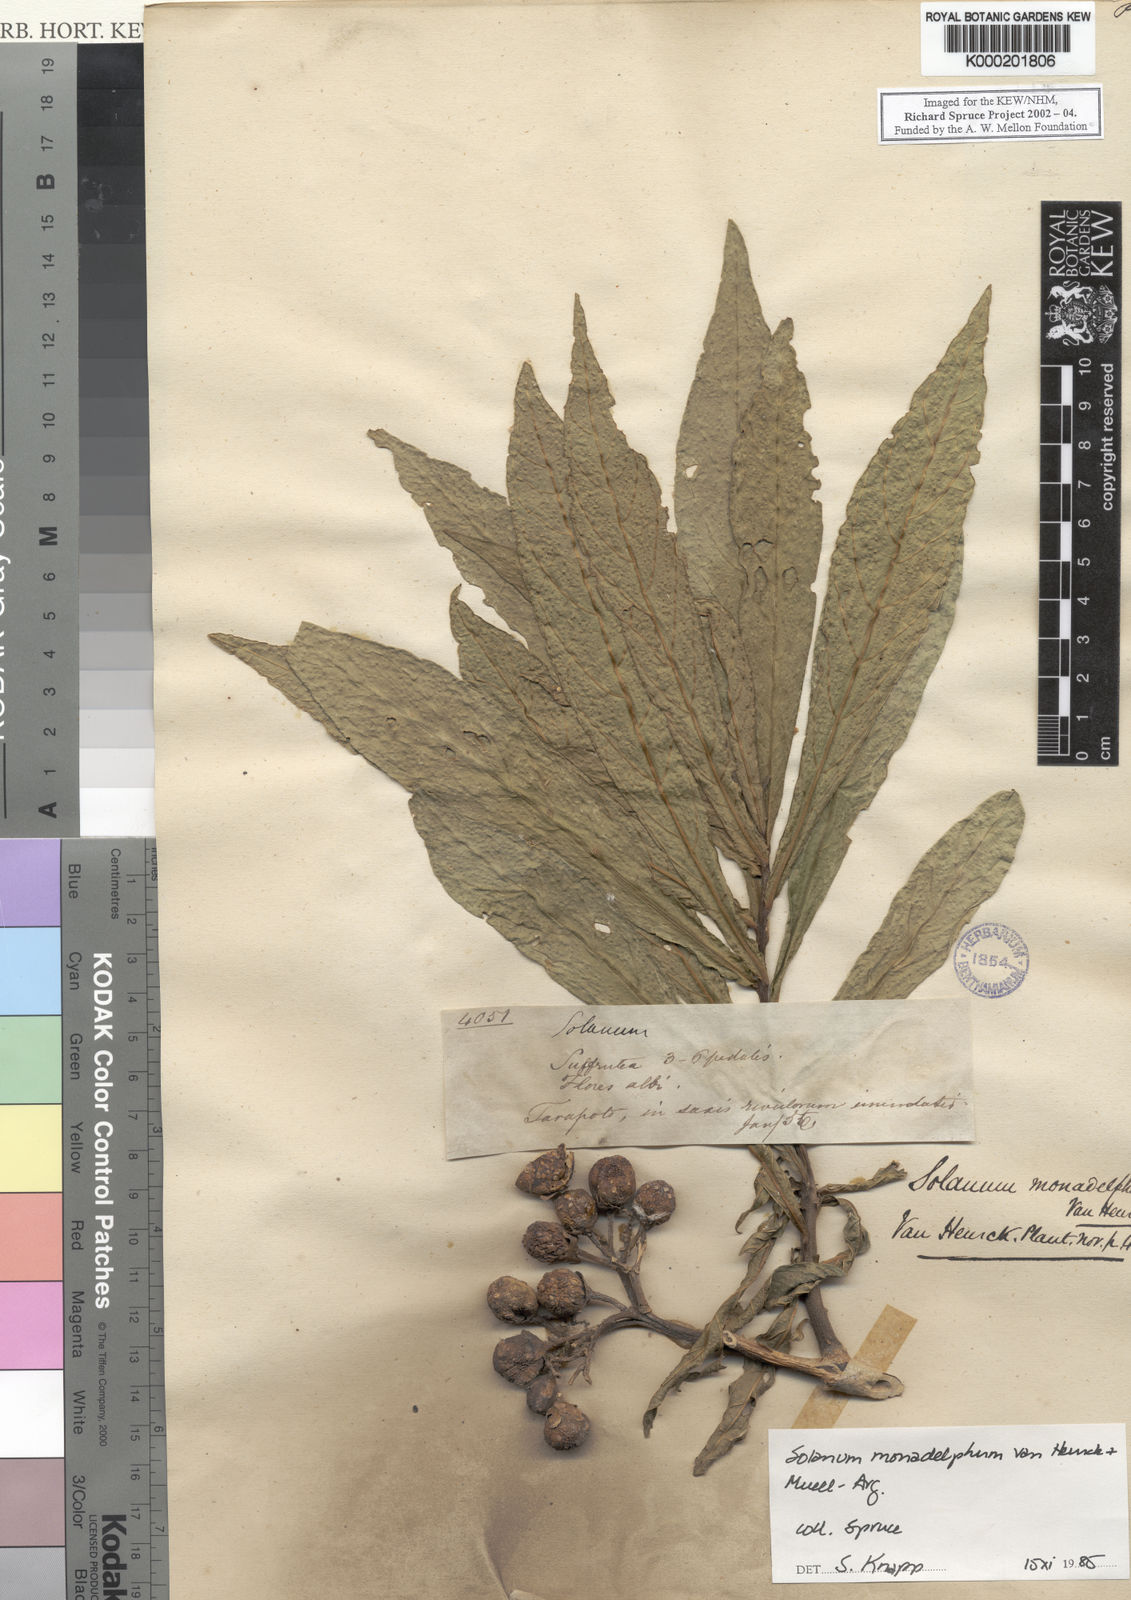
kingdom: Plantae
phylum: Tracheophyta
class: Magnoliopsida
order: Solanales
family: Solanaceae
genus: Solanum
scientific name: Solanum
